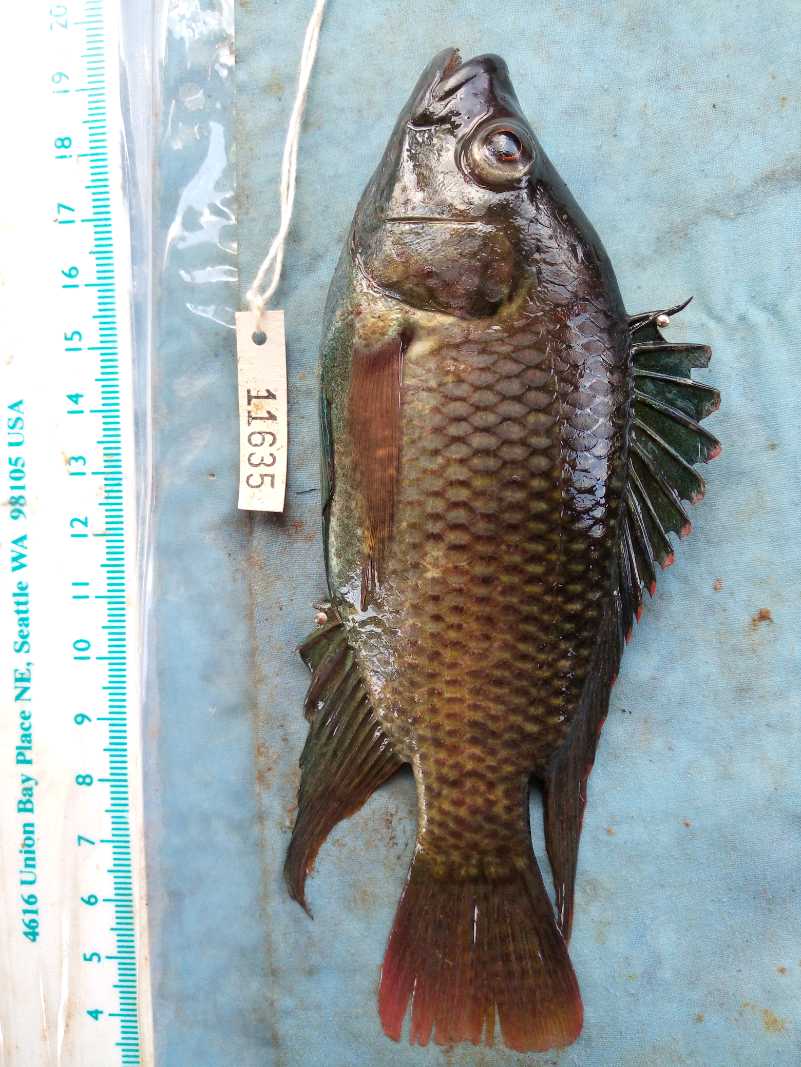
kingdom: Animalia
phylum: Chordata
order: Perciformes
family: Cichlidae
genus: Oreochromis
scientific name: Oreochromis spilurus
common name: Sabaki tilapia
